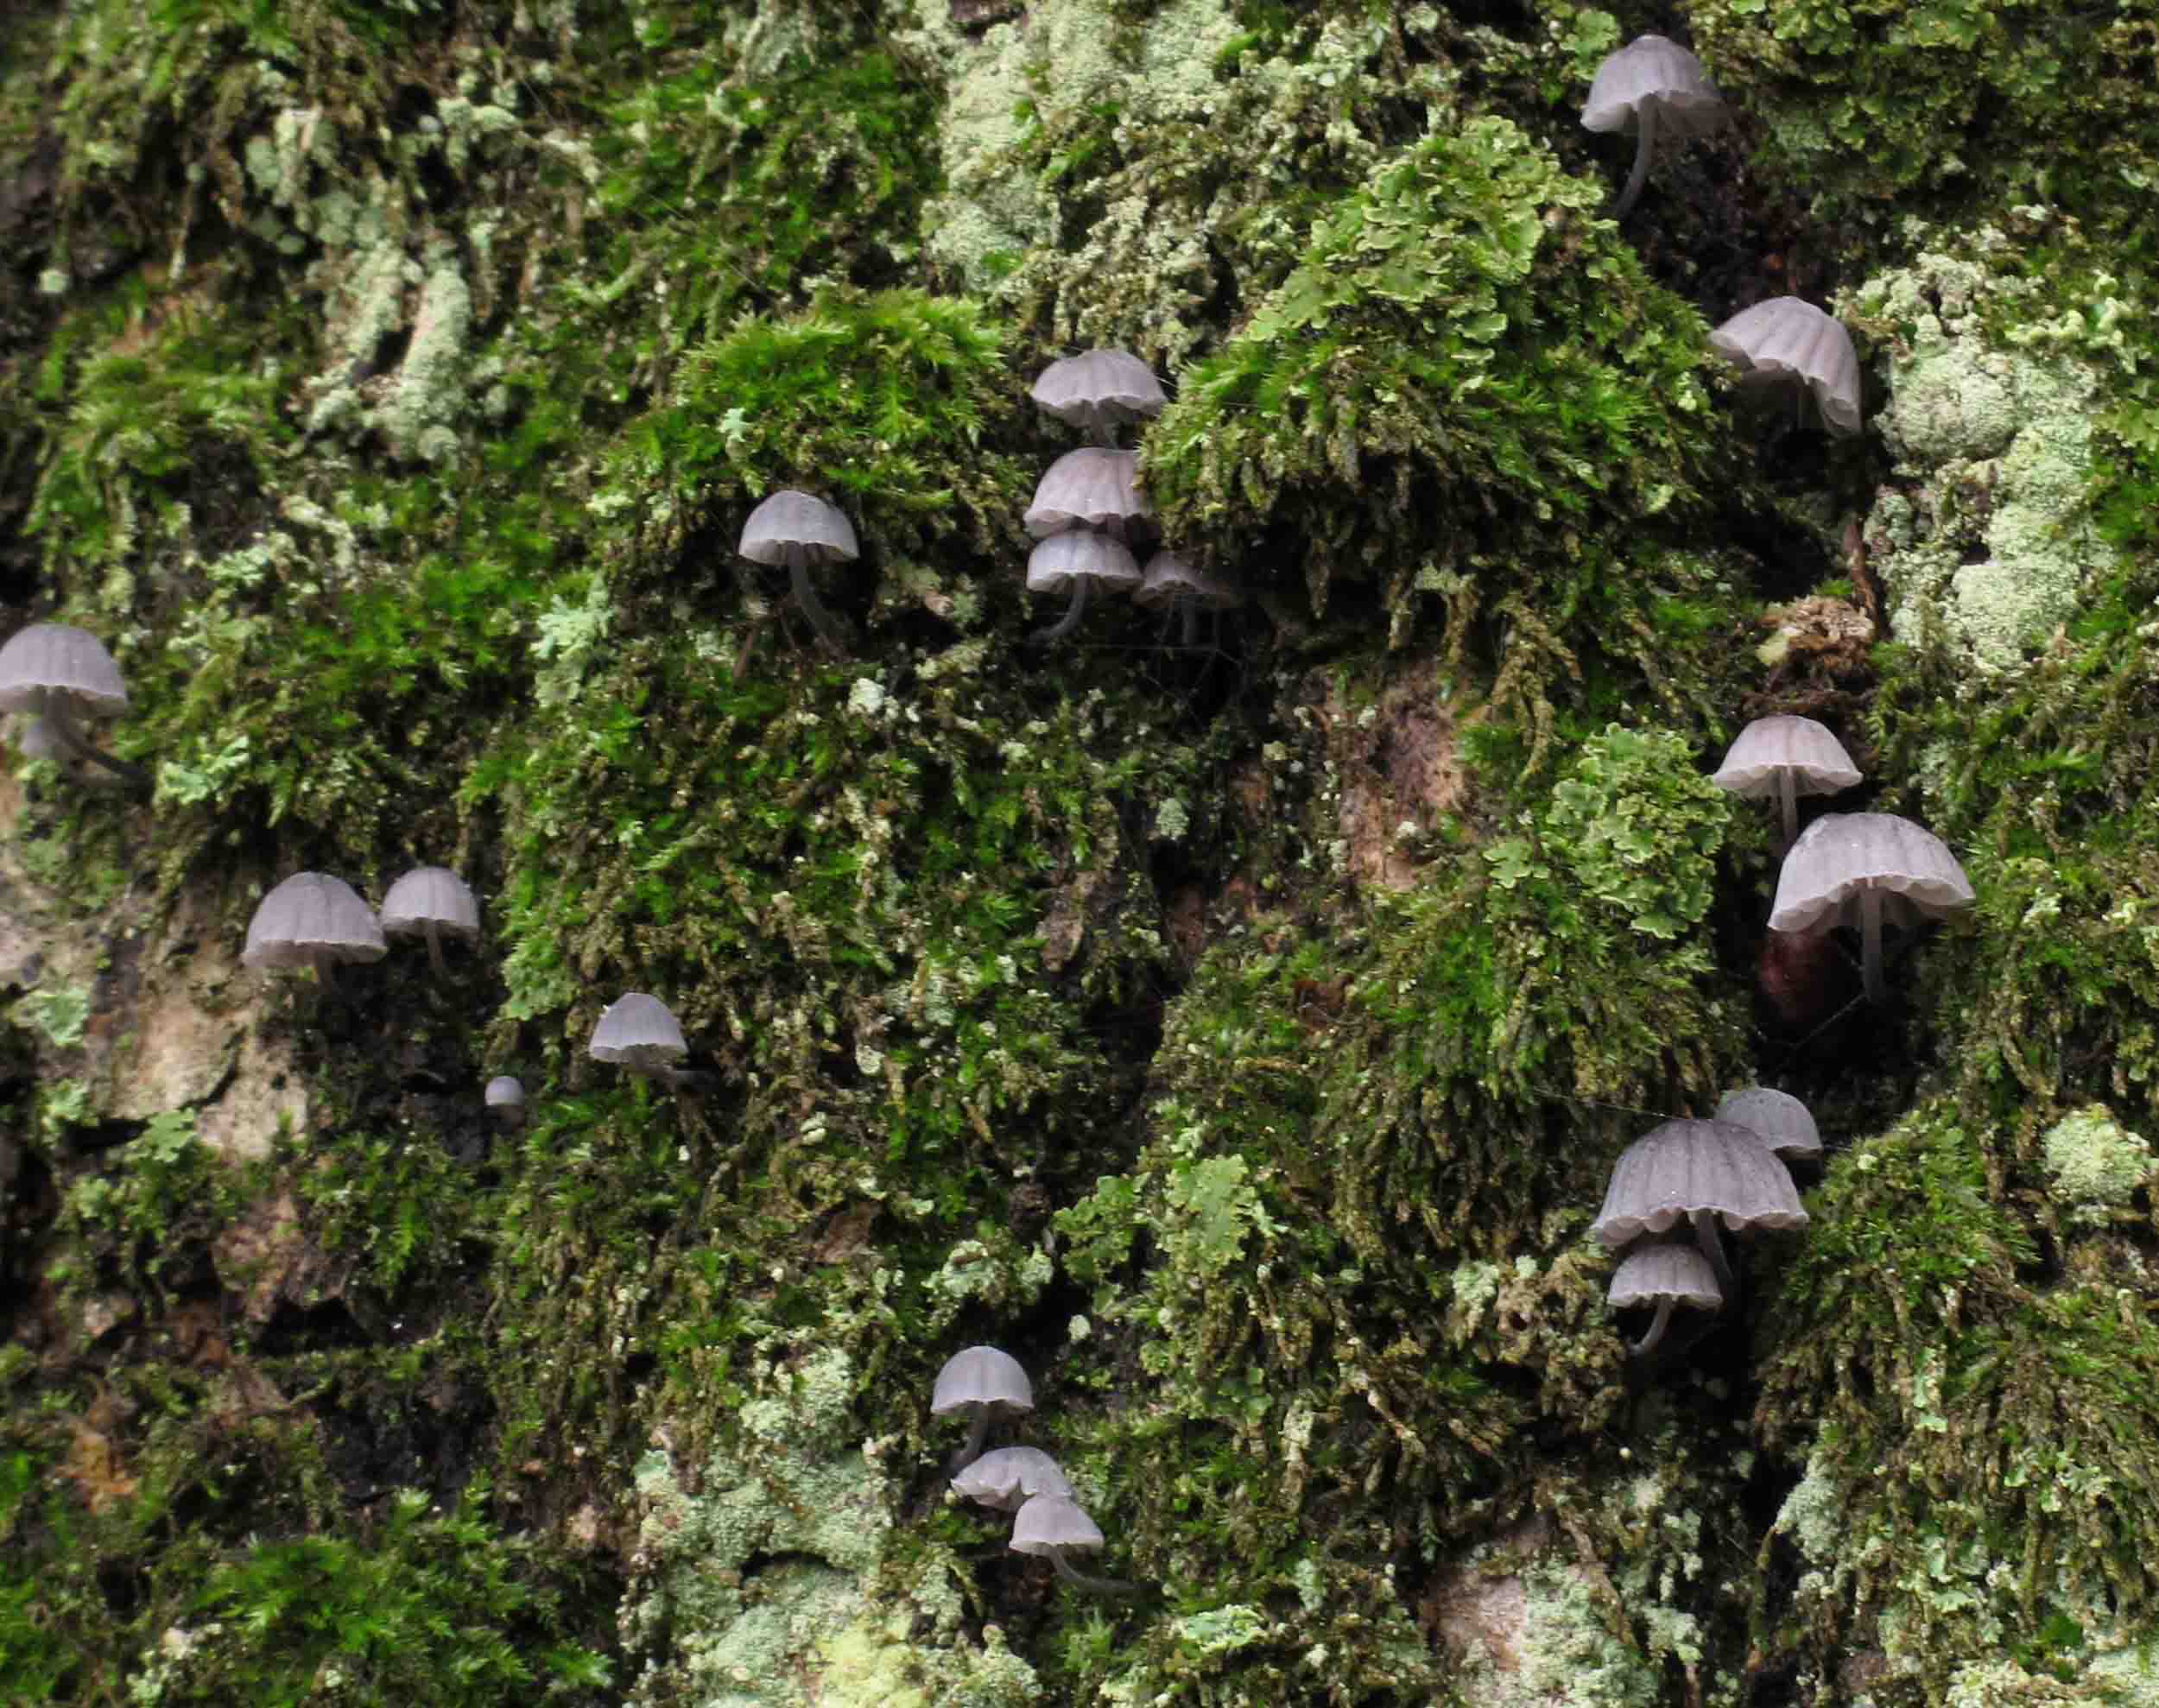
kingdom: Fungi
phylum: Basidiomycota
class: Agaricomycetes
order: Agaricales
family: Mycenaceae
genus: Mycena
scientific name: Mycena pseudocorticola
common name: gråblå bark-huesvamp
